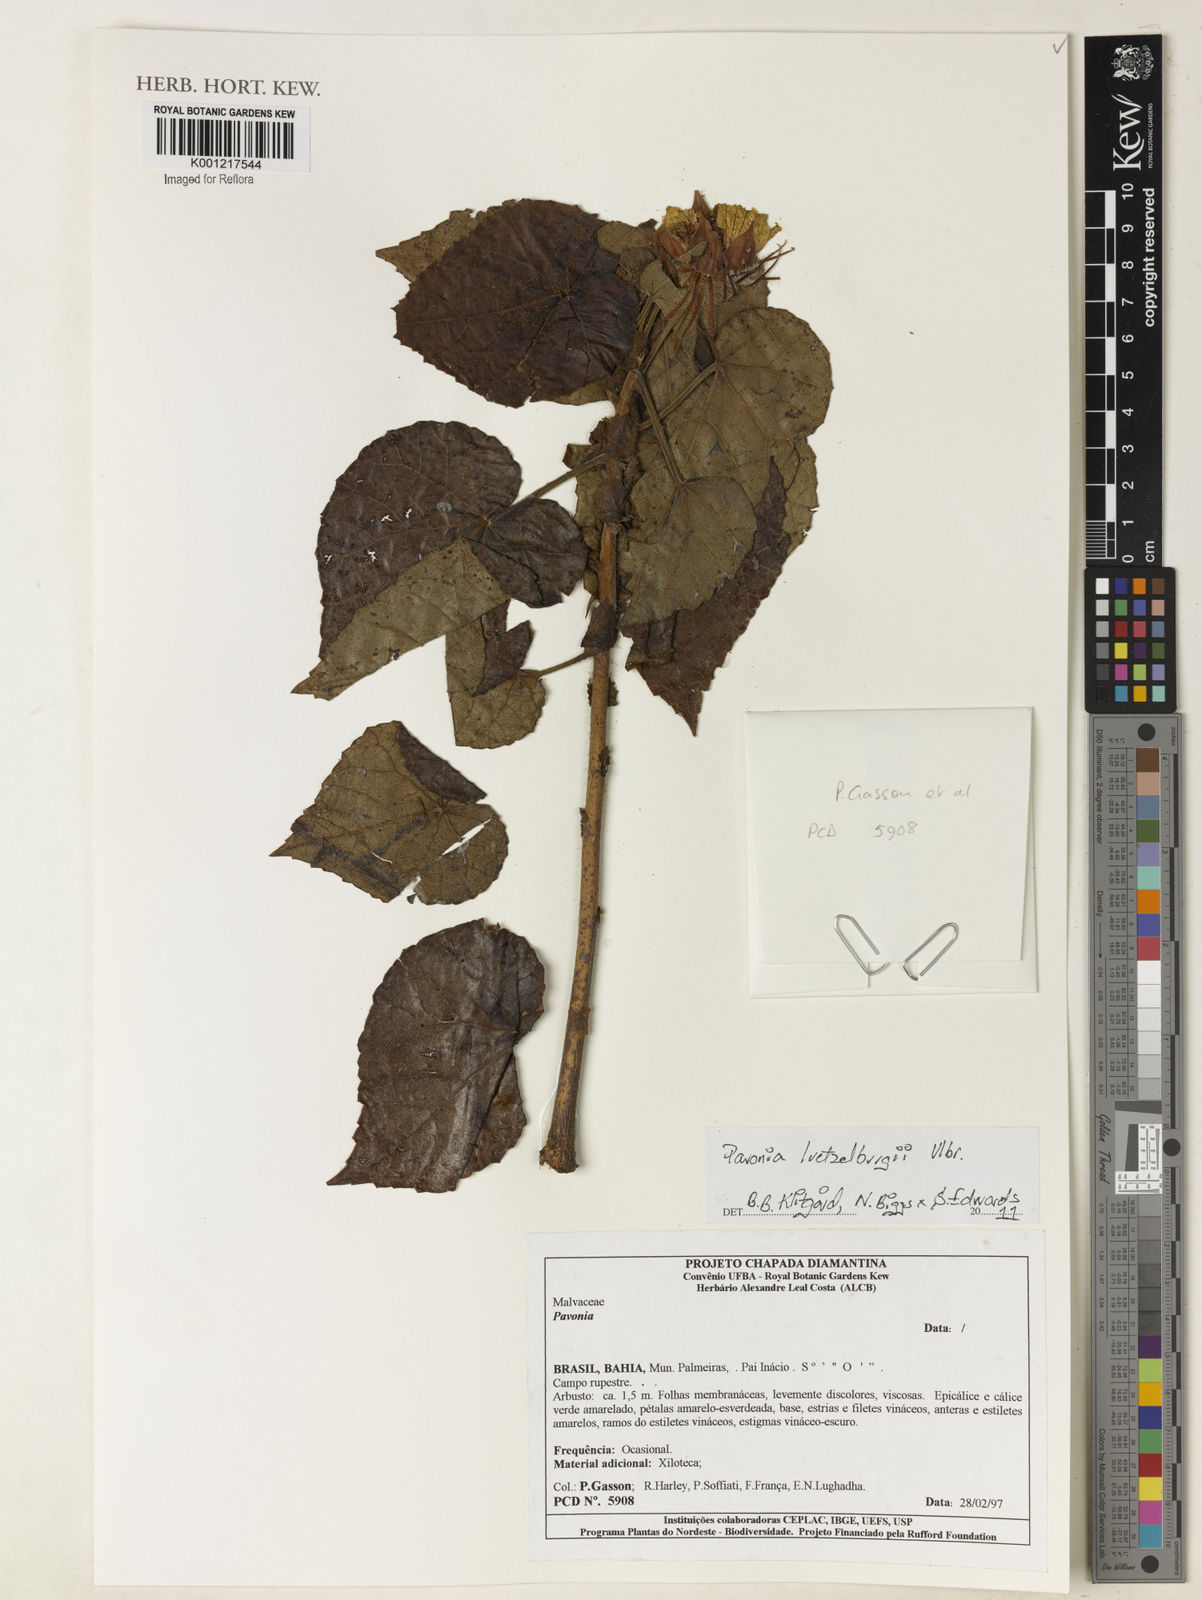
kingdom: Plantae
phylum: Tracheophyta
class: Magnoliopsida
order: Malvales
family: Malvaceae
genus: Pavonia
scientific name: Pavonia luetzelburgii
